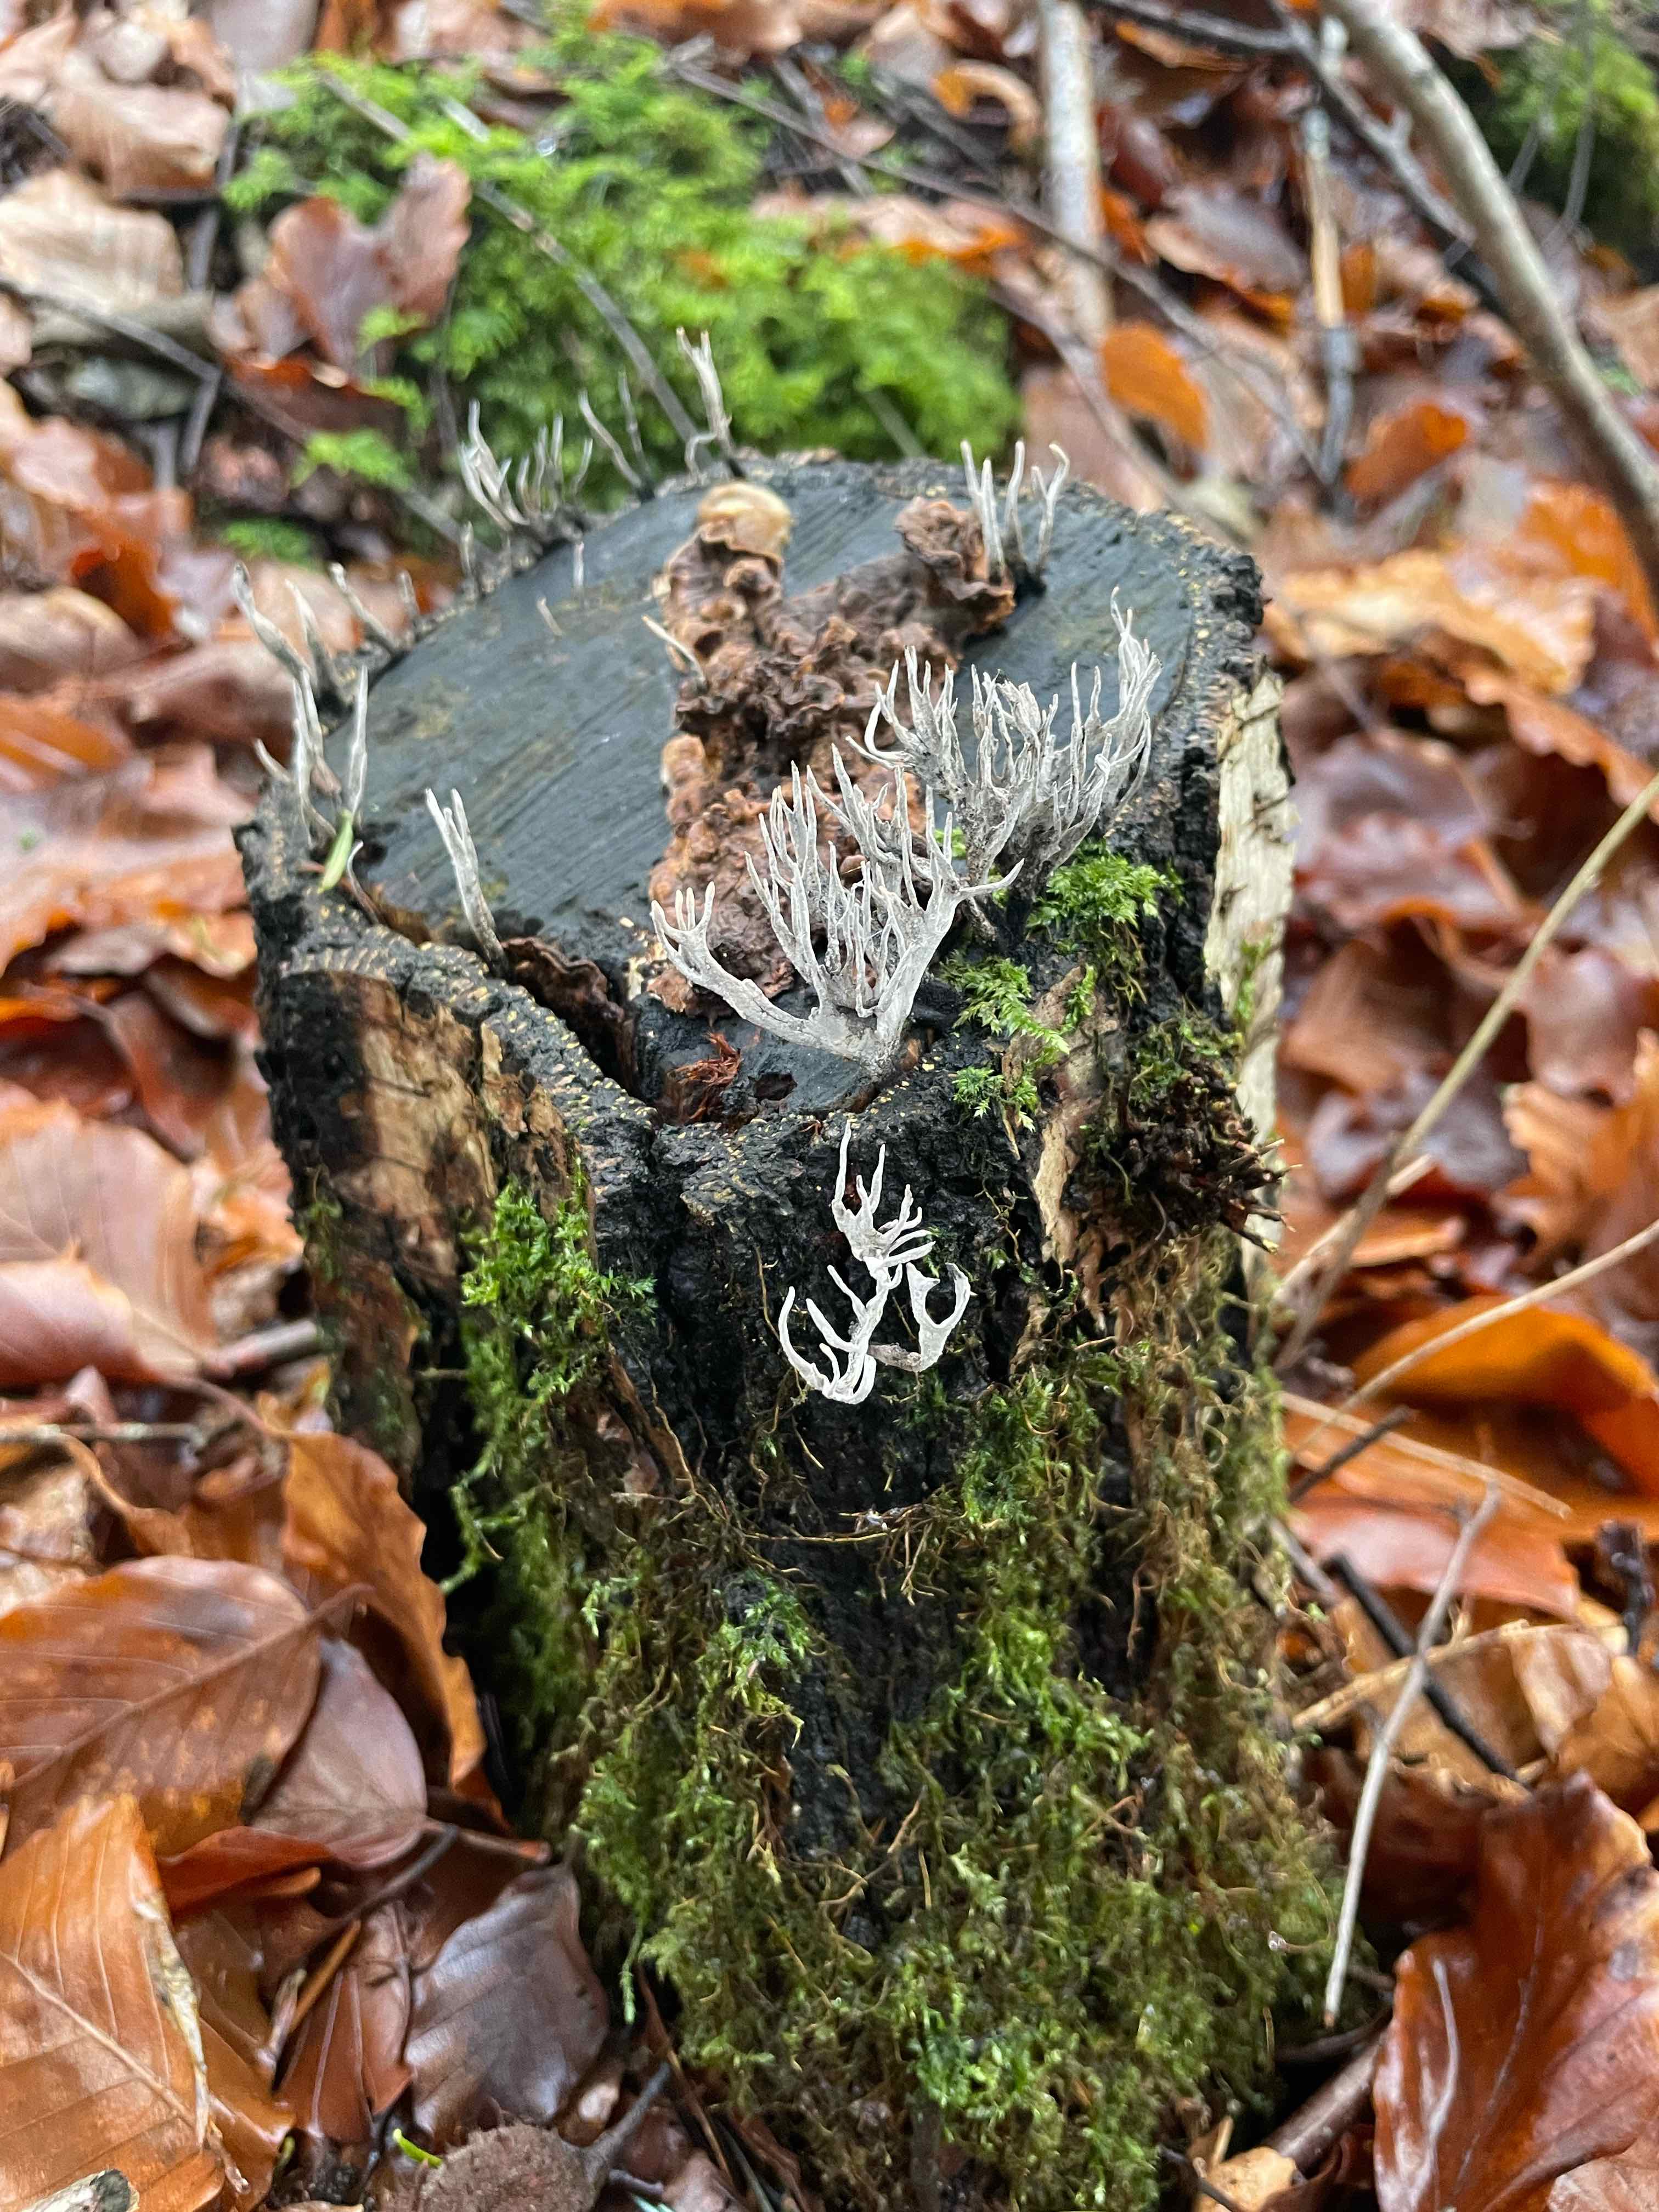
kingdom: Fungi
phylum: Ascomycota
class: Sordariomycetes
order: Xylariales
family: Xylariaceae
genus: Xylaria
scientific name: Xylaria hypoxylon
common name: grenet stødsvamp
